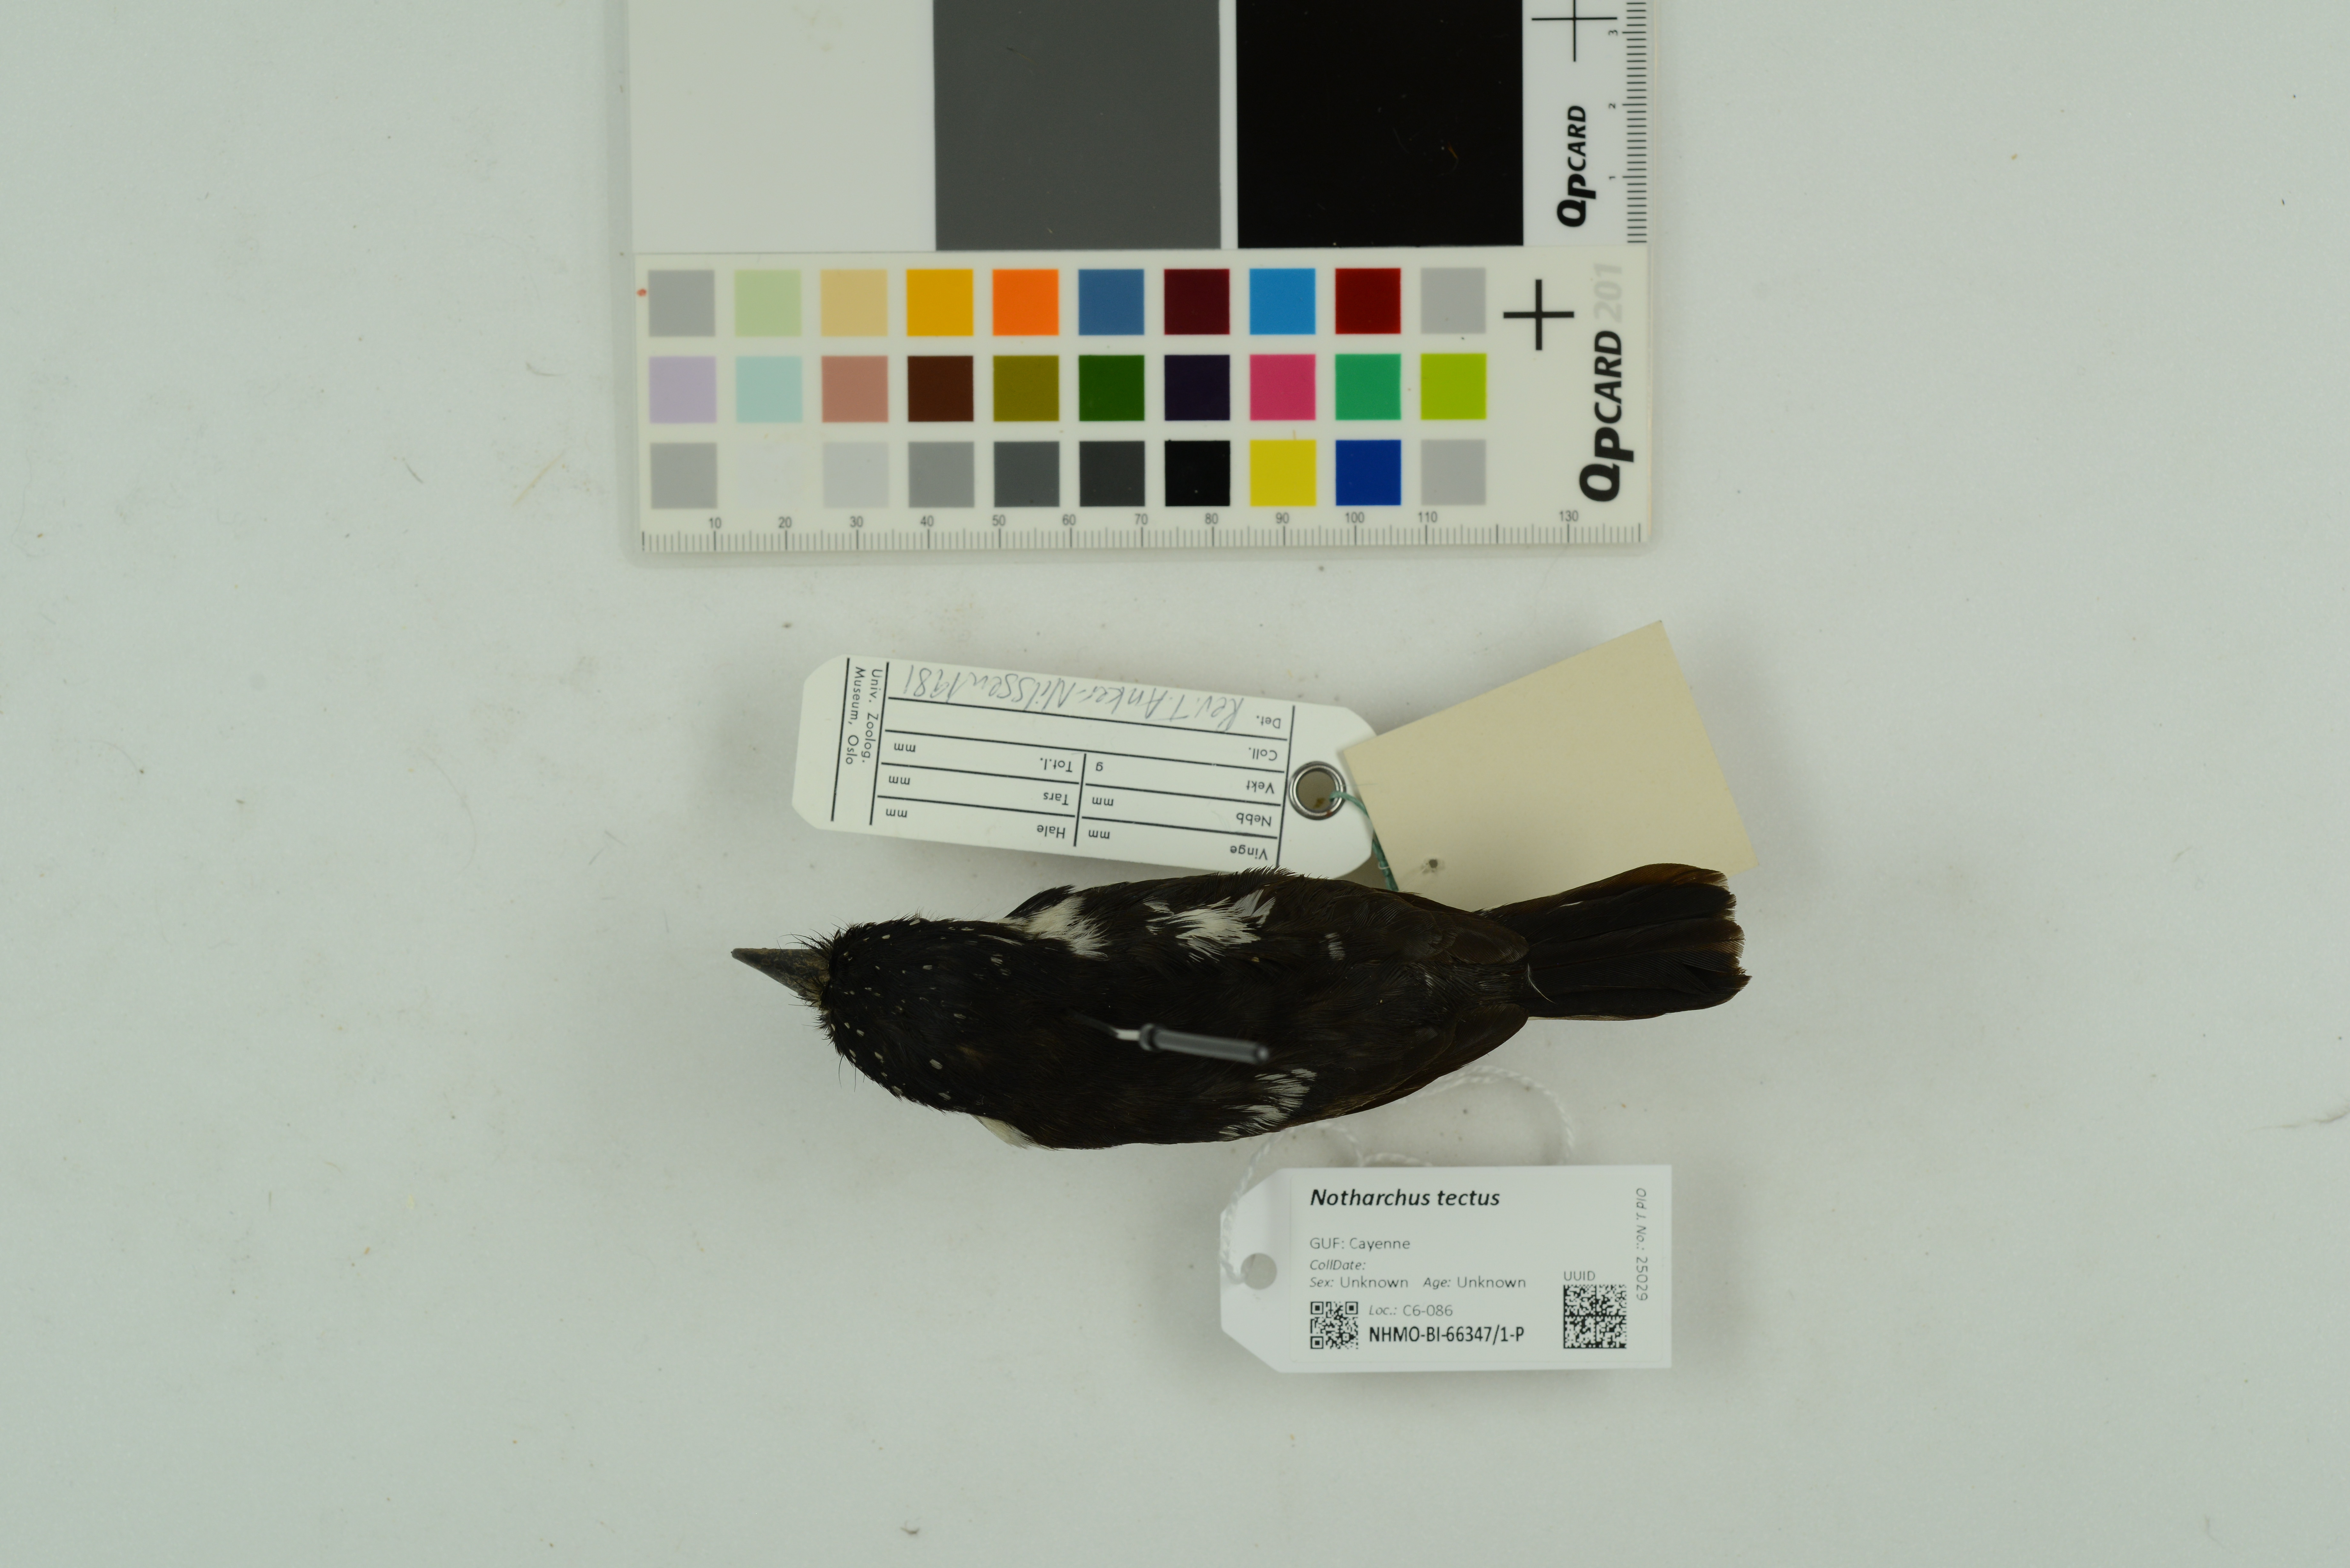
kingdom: Animalia
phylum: Chordata
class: Aves
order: Piciformes
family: Bucconidae
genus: Notharchus
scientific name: Notharchus tectus
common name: Pied puffbird
